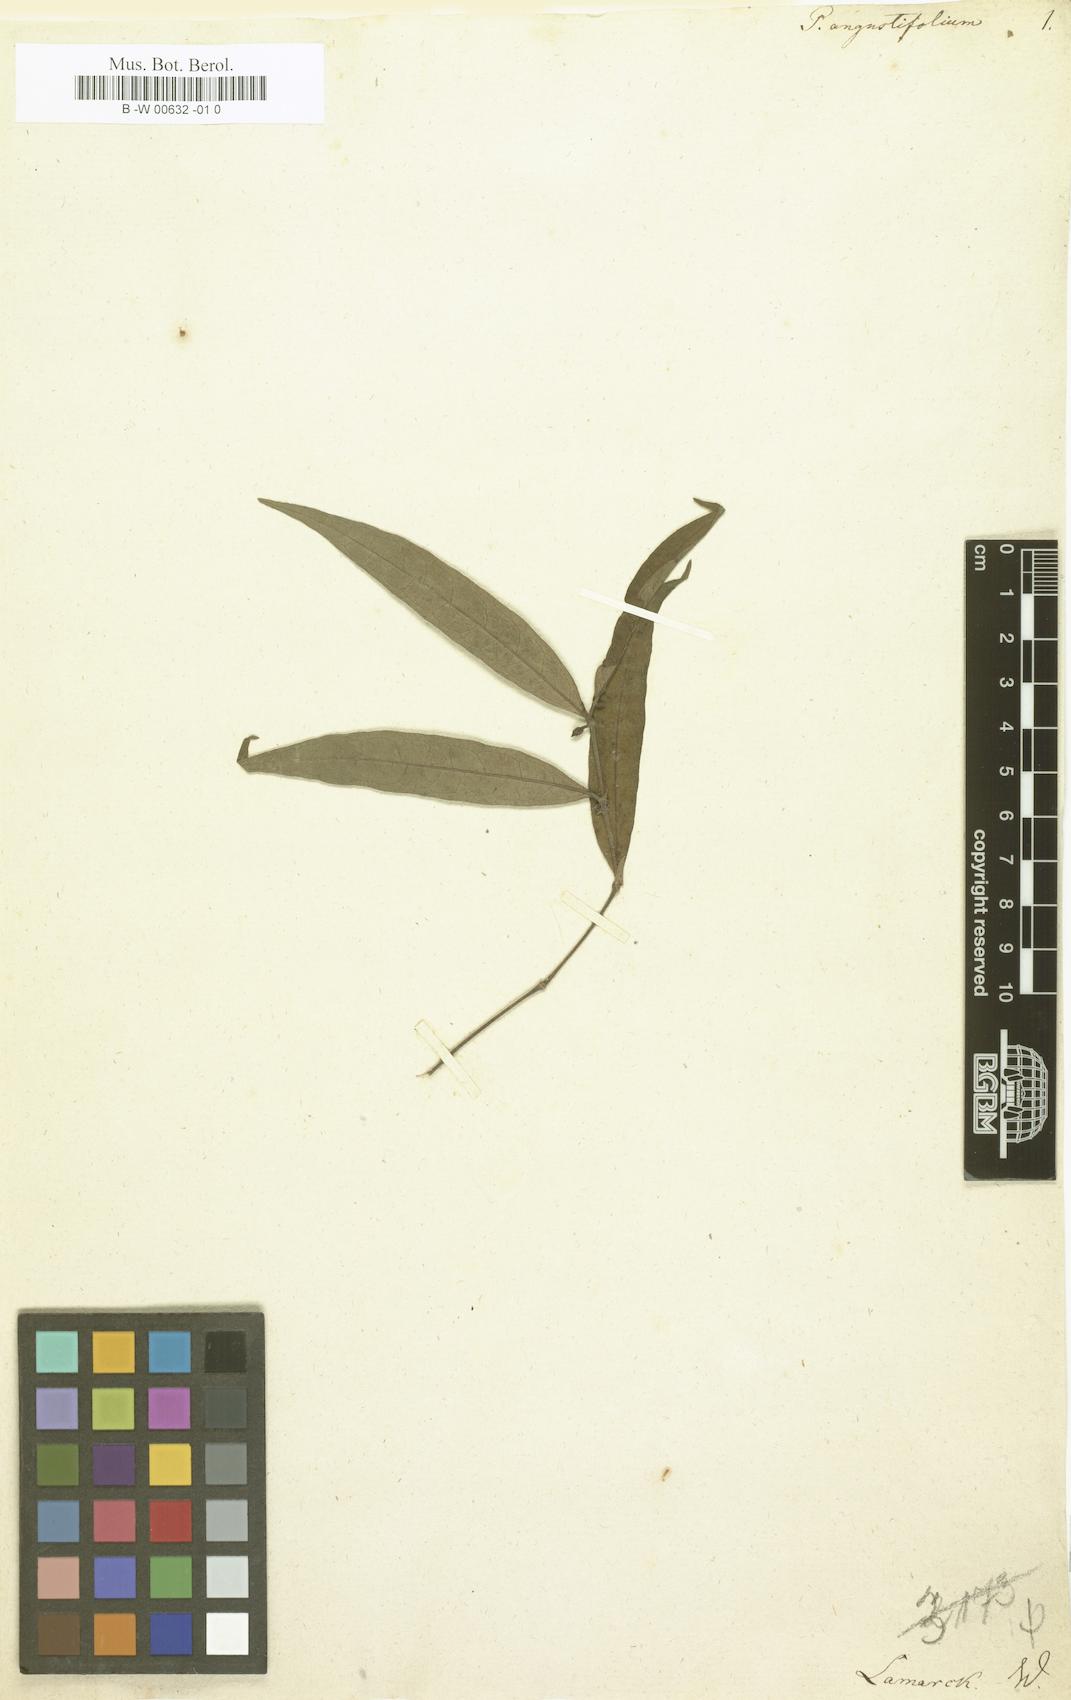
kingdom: Plantae
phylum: Tracheophyta
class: Magnoliopsida
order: Piperales
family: Piperaceae
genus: Piper
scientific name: Piper consanguineum
